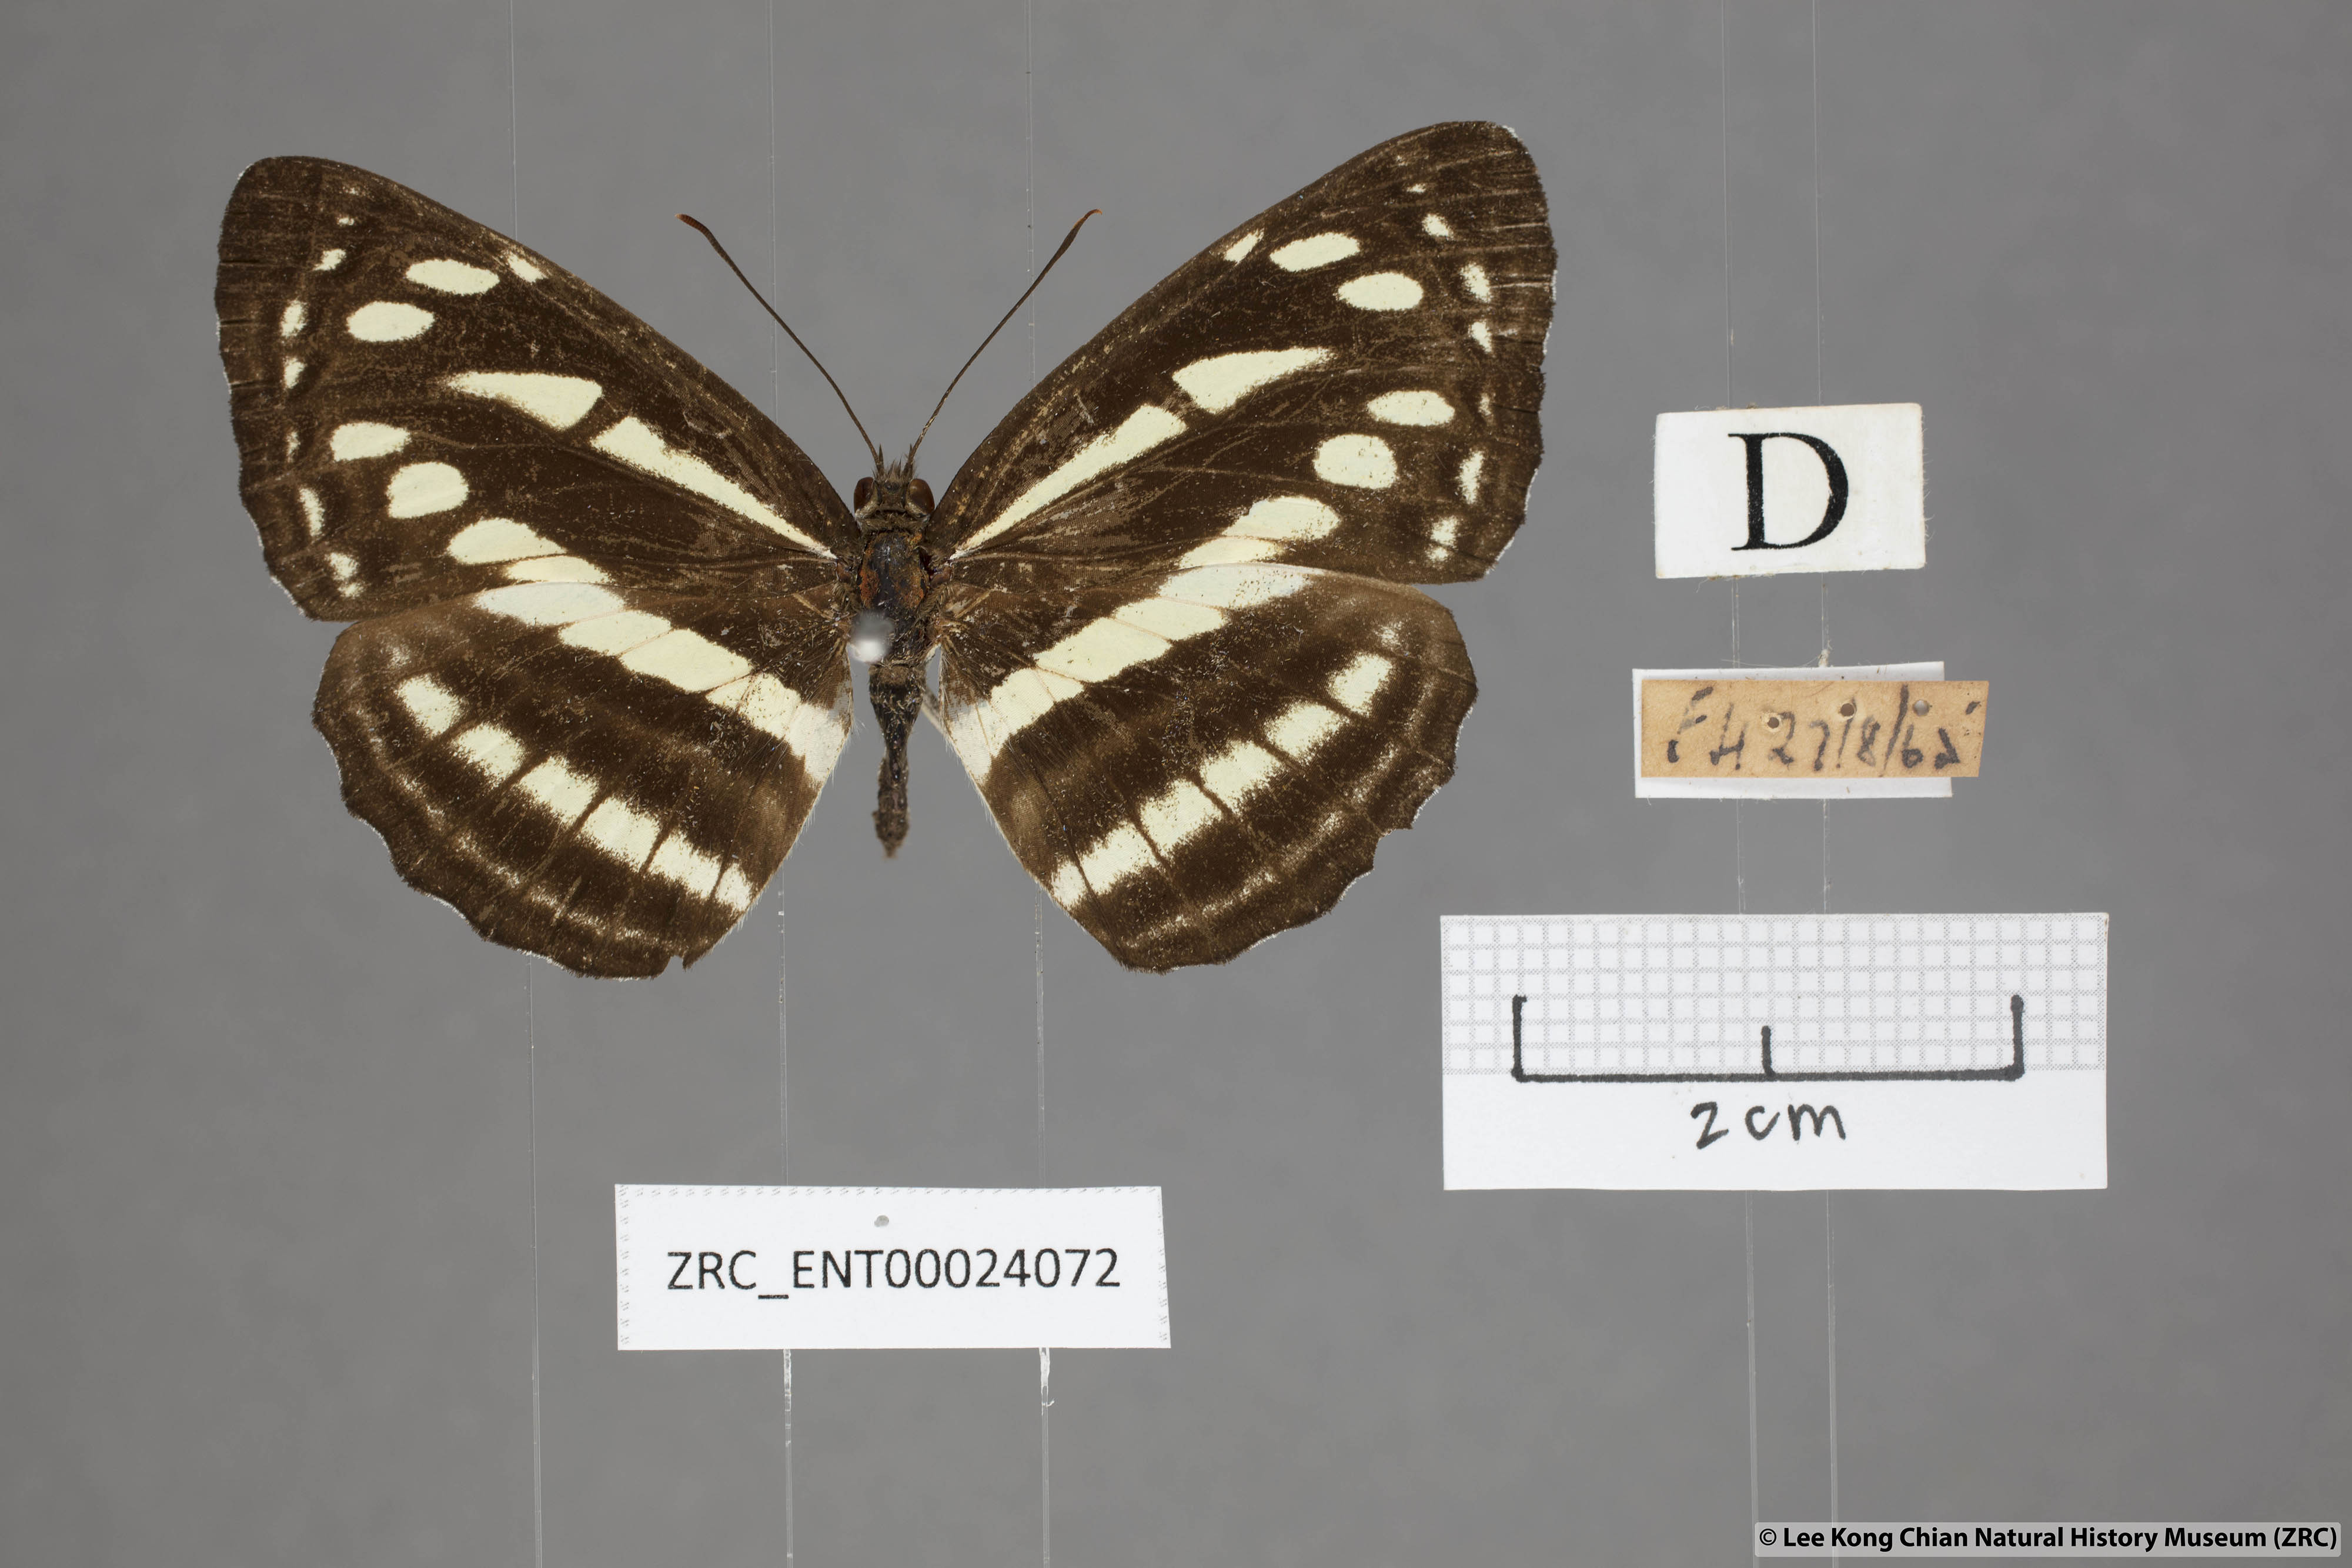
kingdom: Animalia
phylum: Arthropoda
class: Insecta
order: Lepidoptera
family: Nymphalidae
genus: Neptis
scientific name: Neptis soma
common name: Cream-spotted sailor
